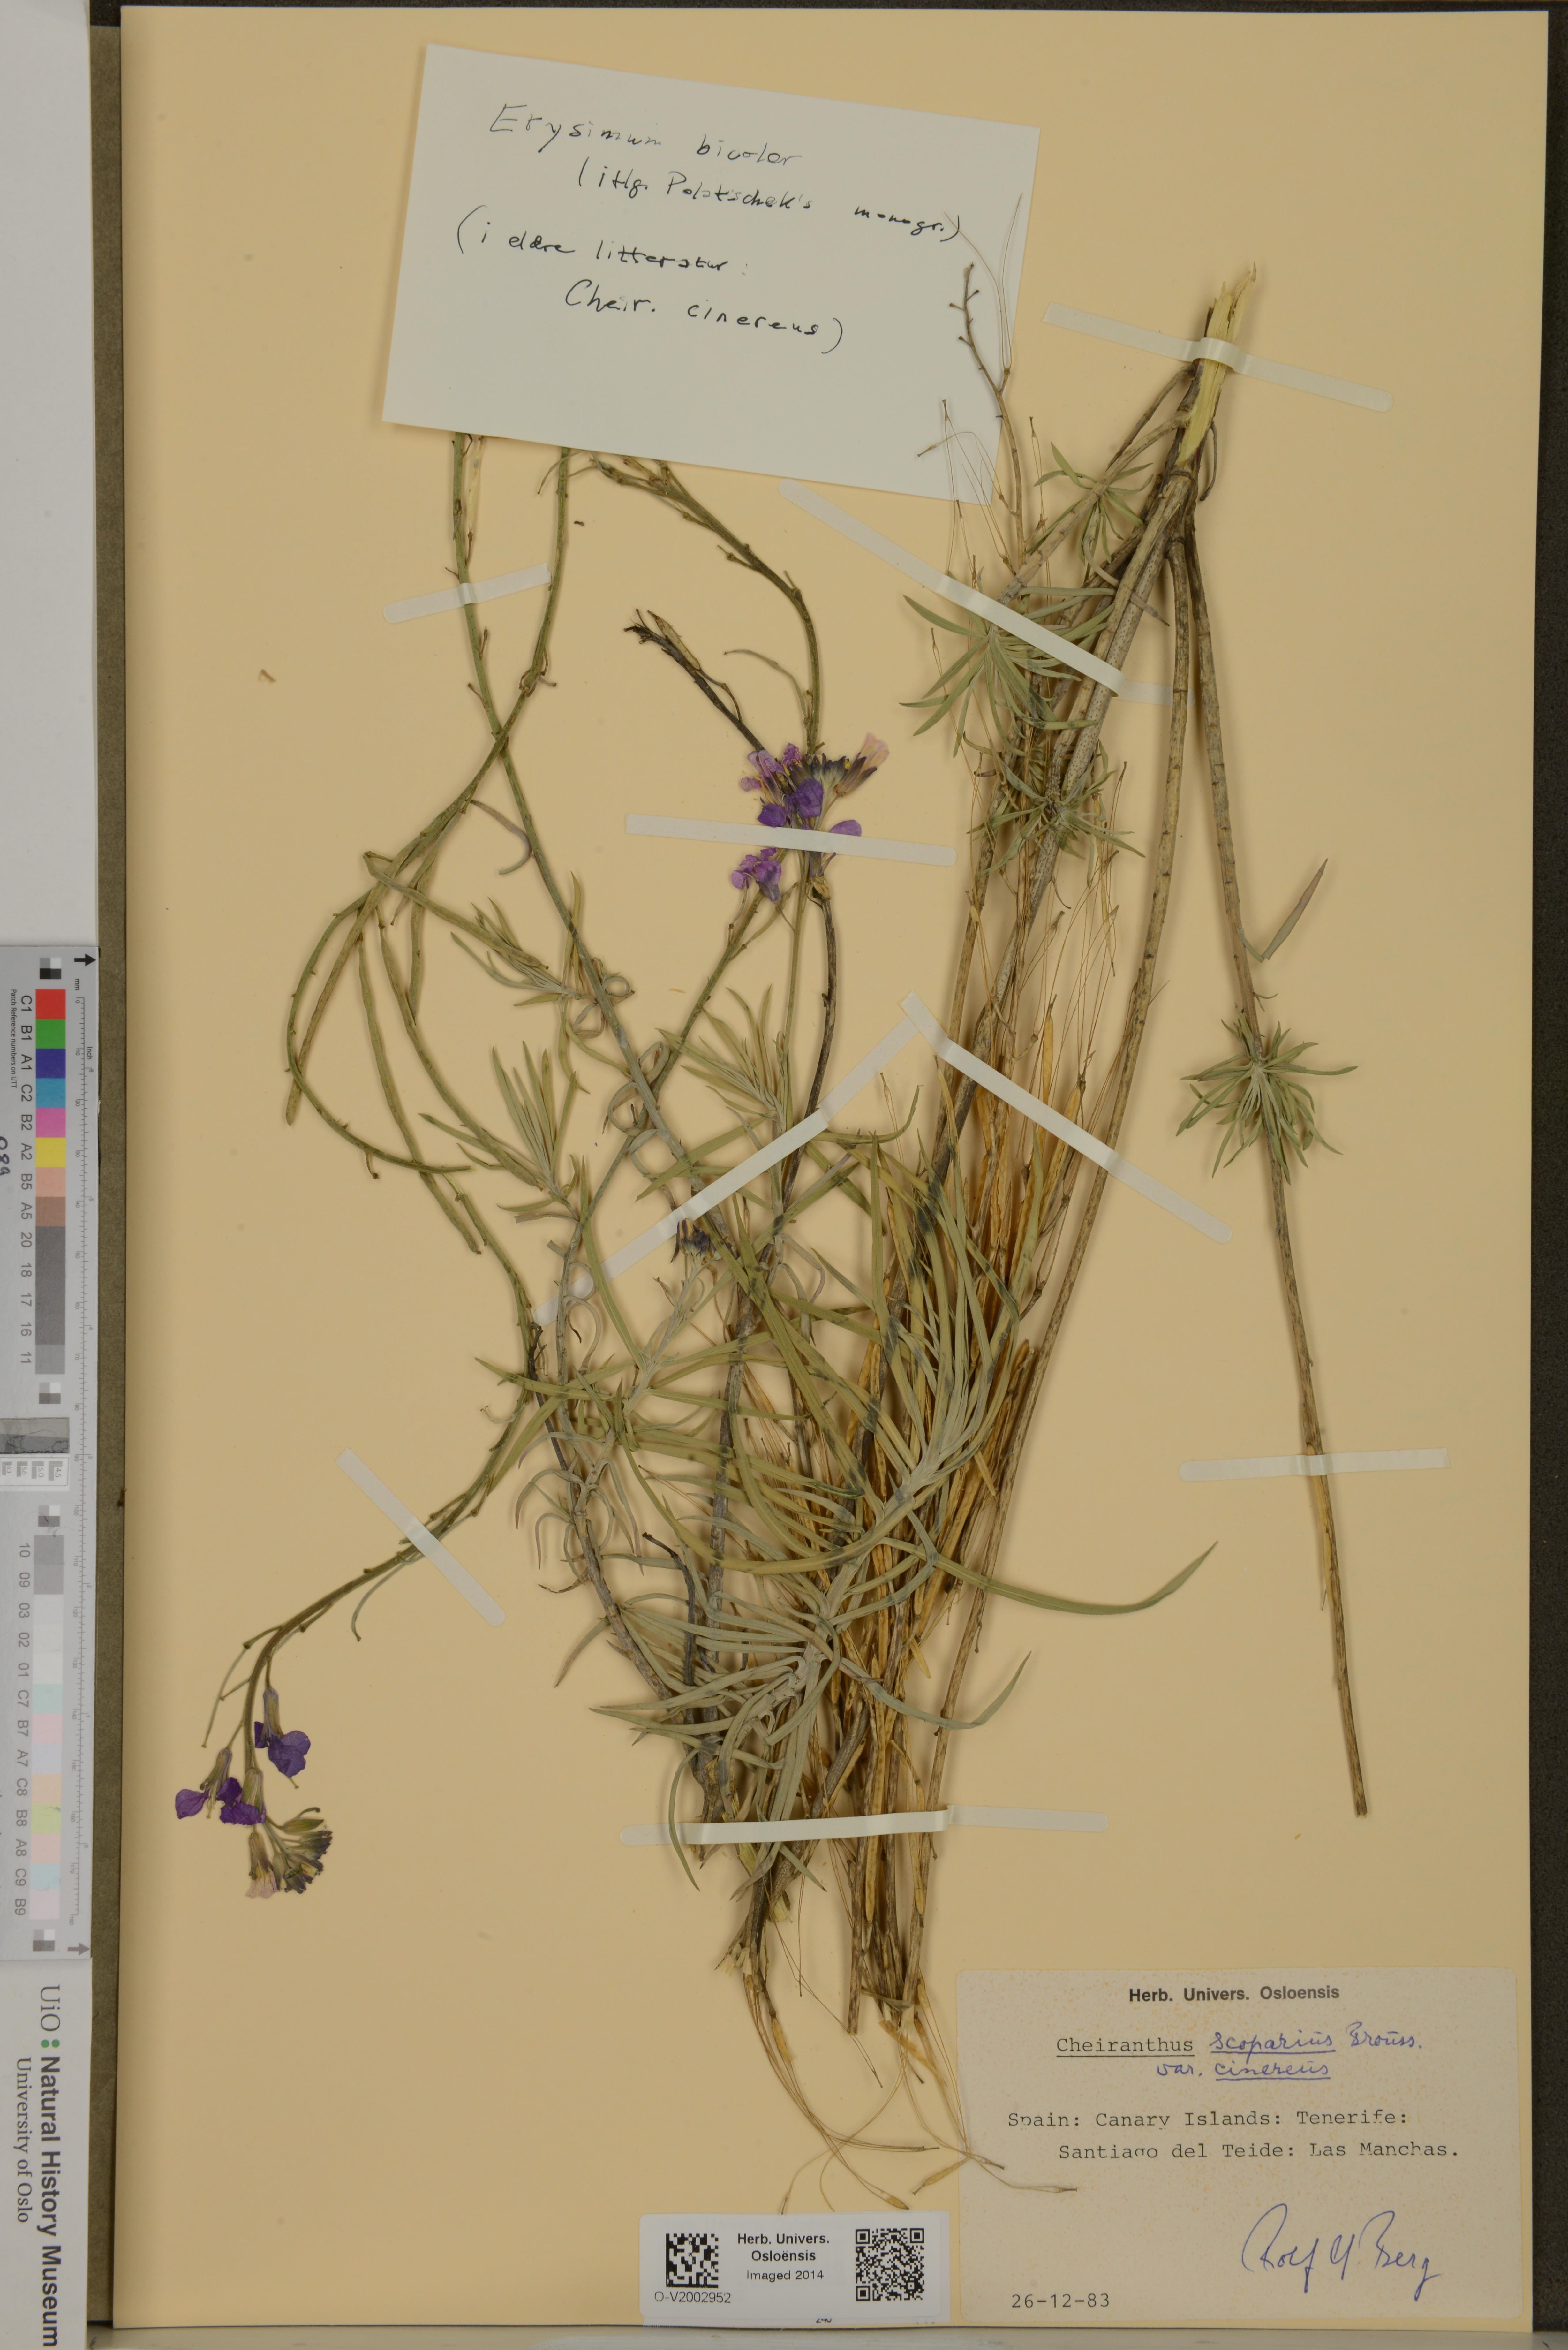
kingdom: Plantae
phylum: Tracheophyta
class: Magnoliopsida
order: Brassicales
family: Brassicaceae
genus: Erysimum
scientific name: Erysimum scoparium
